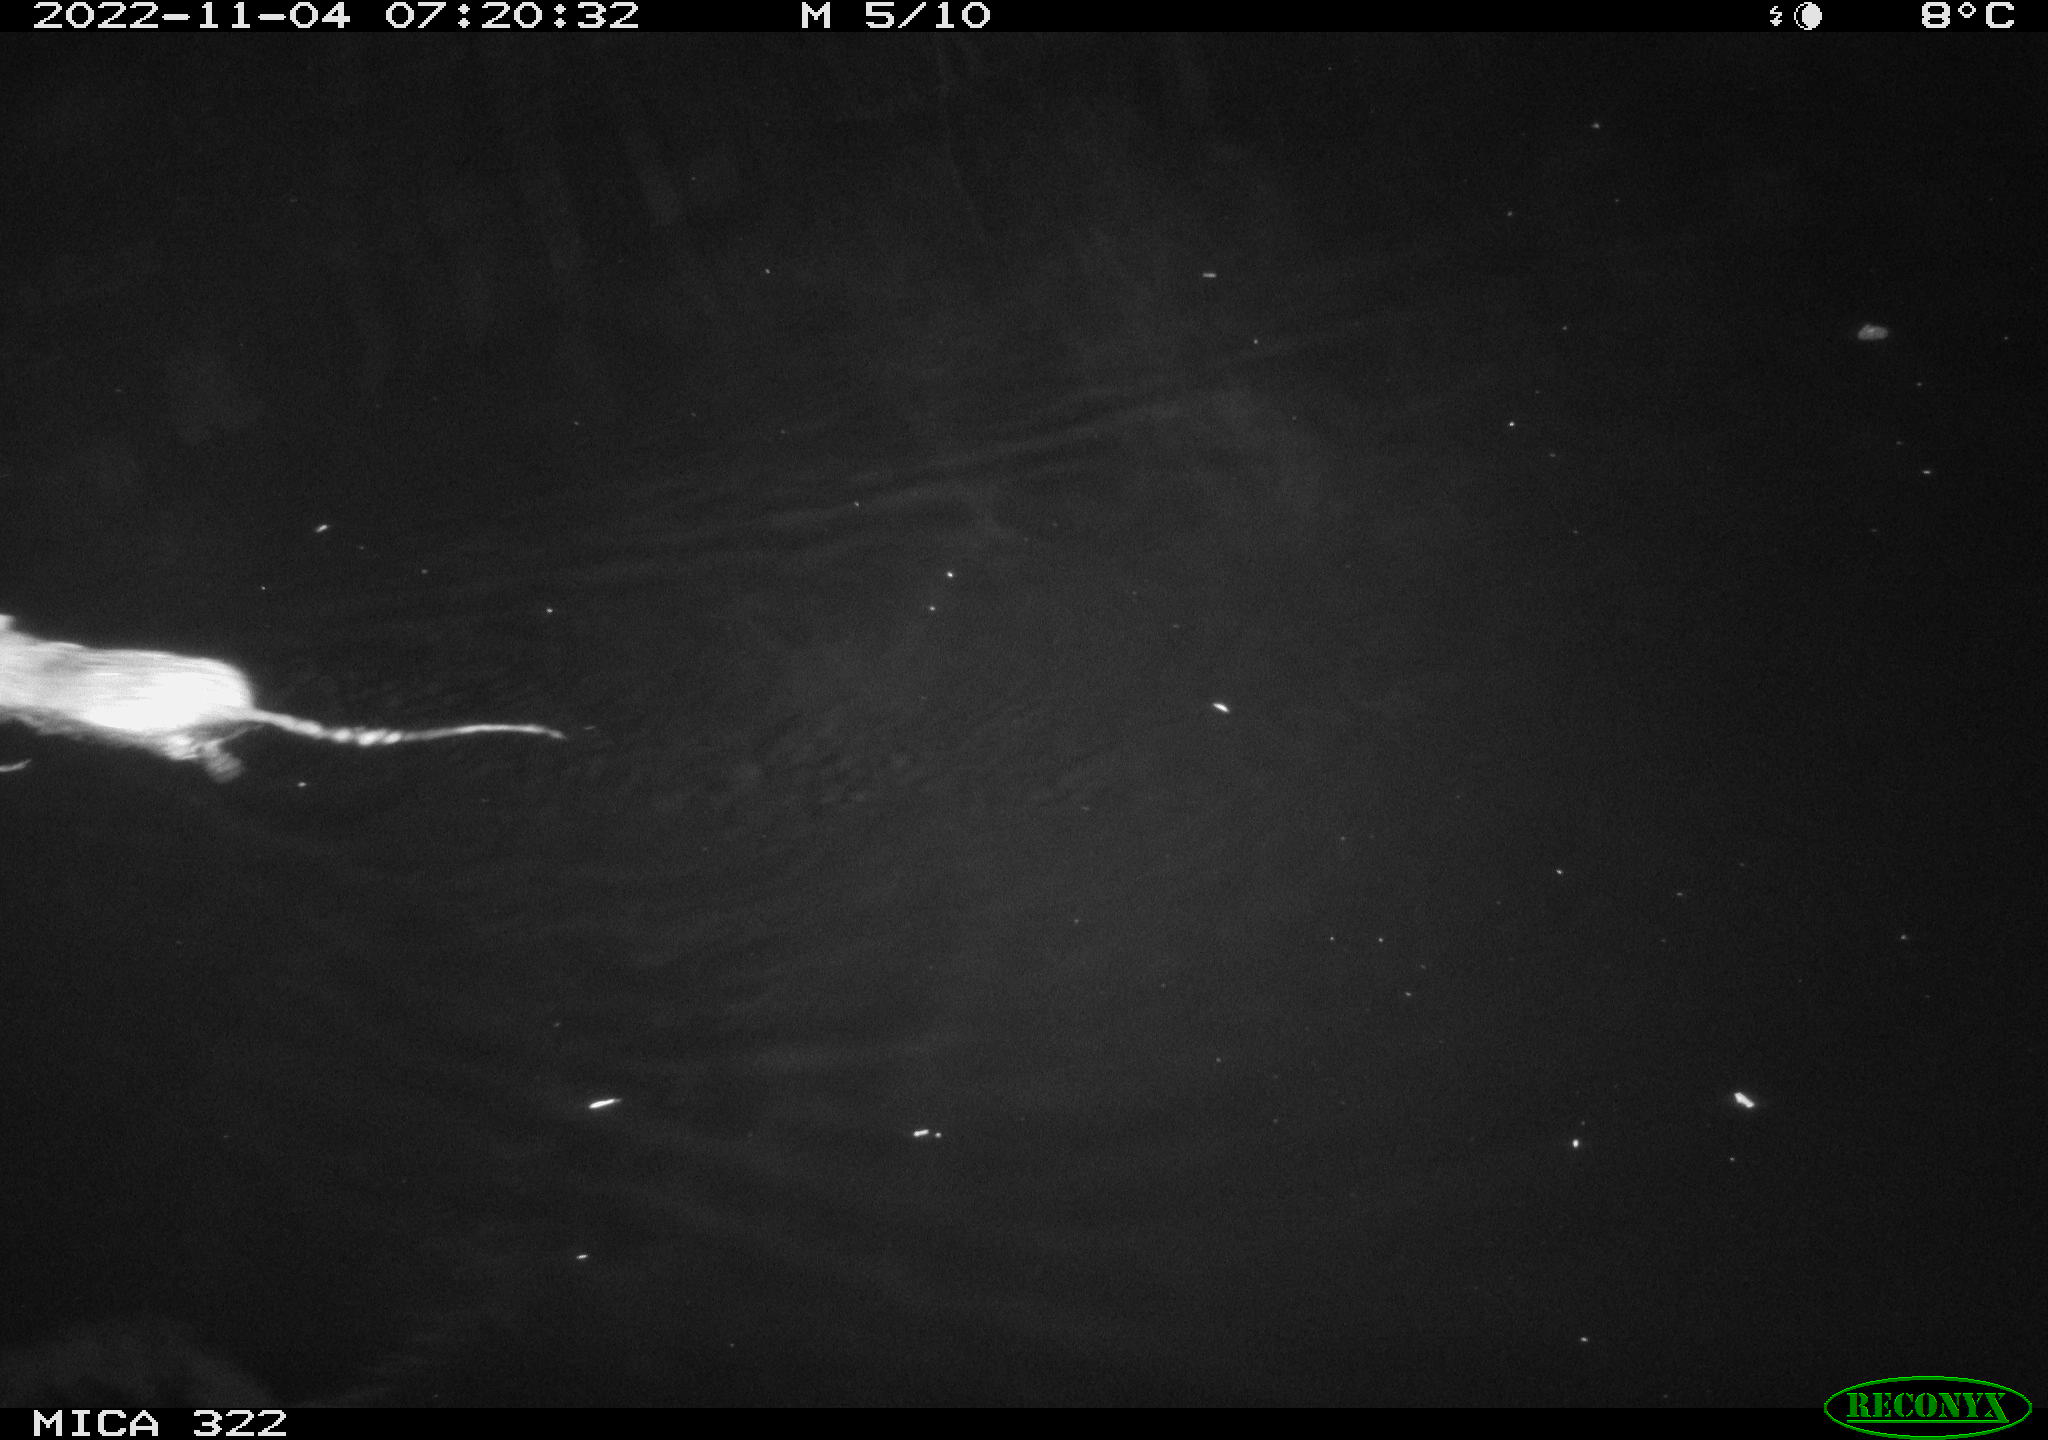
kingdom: Animalia
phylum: Chordata
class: Mammalia
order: Rodentia
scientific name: Rodentia
